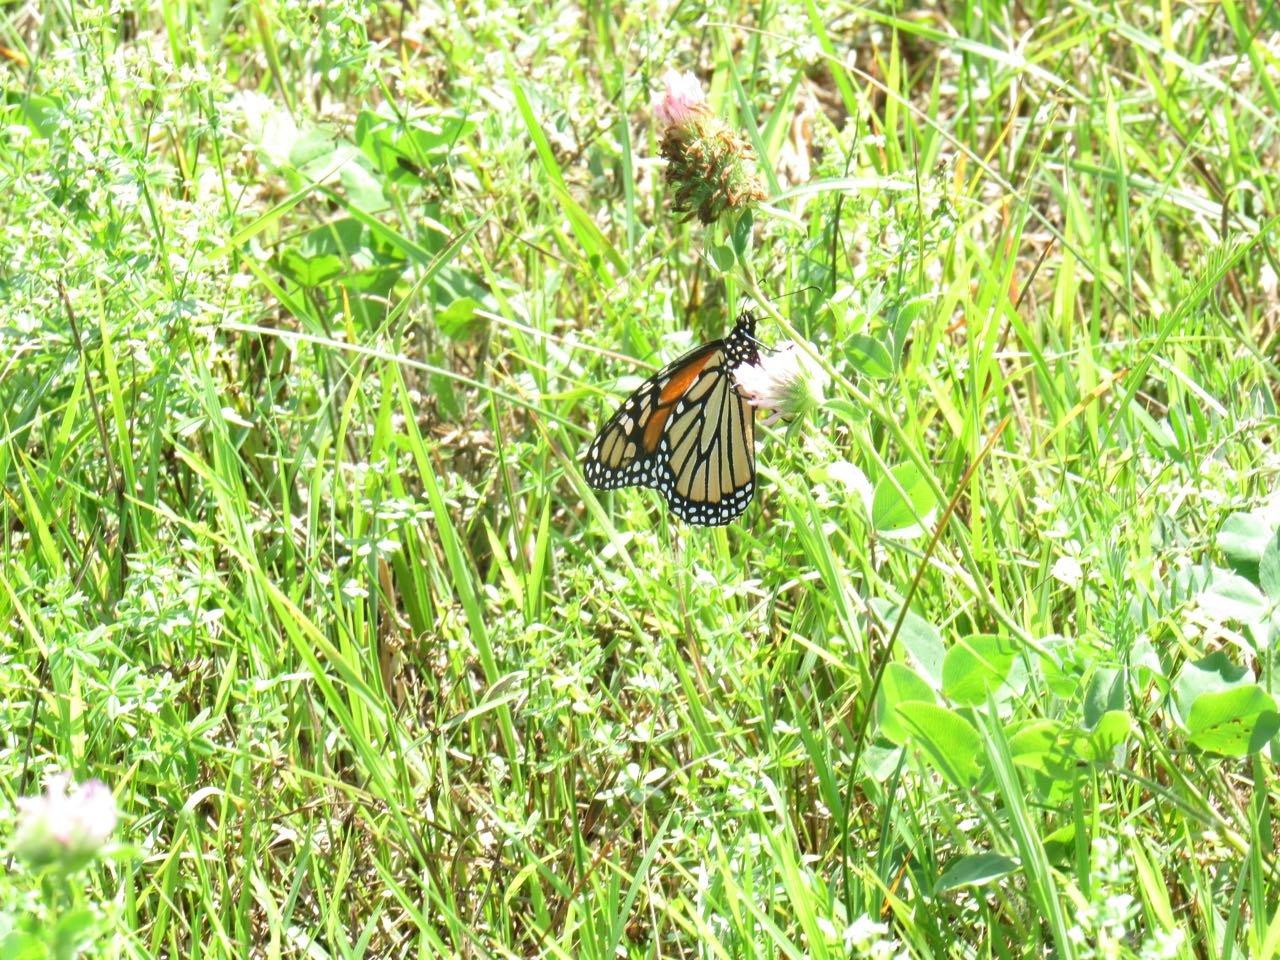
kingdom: Animalia
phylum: Arthropoda
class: Insecta
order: Lepidoptera
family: Nymphalidae
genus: Danaus
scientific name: Danaus plexippus
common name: Monarch
